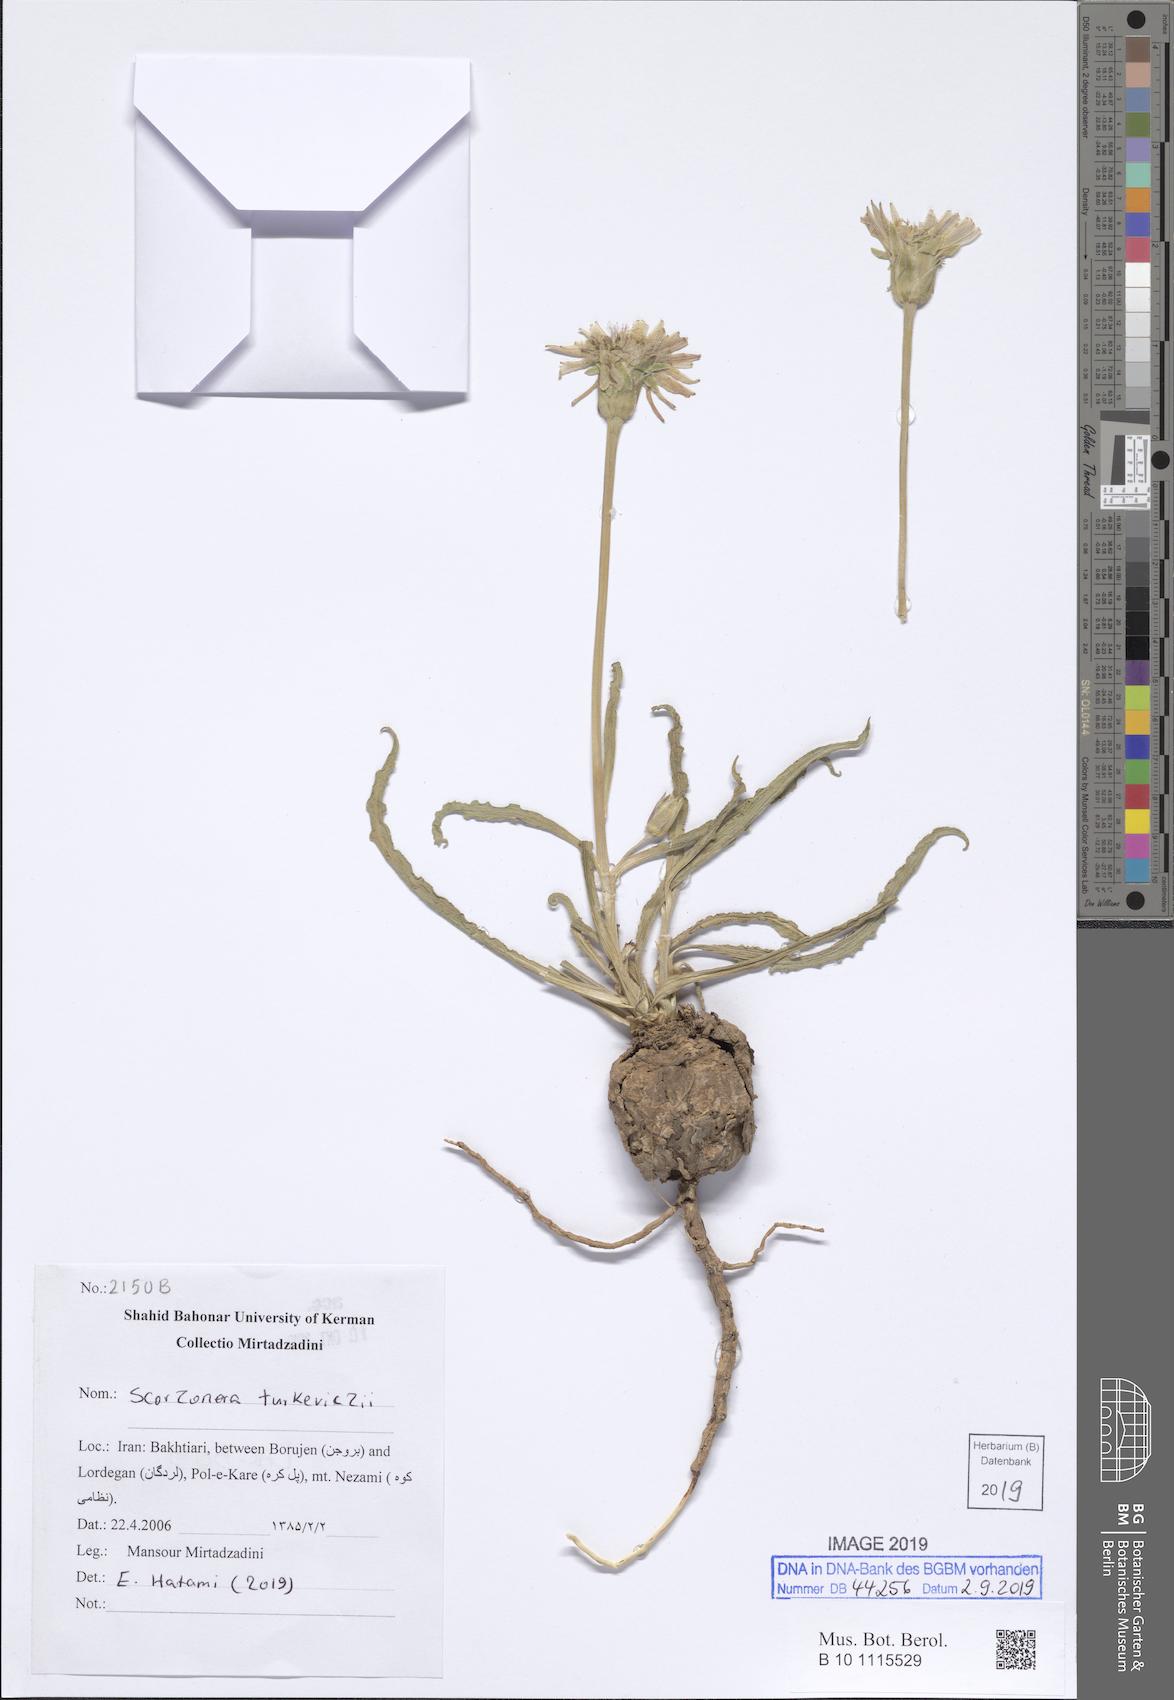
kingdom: Plantae
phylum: Tracheophyta
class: Magnoliopsida
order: Asterales
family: Asteraceae
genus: Pseudopodospermum
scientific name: Pseudopodospermum turkeviczii
